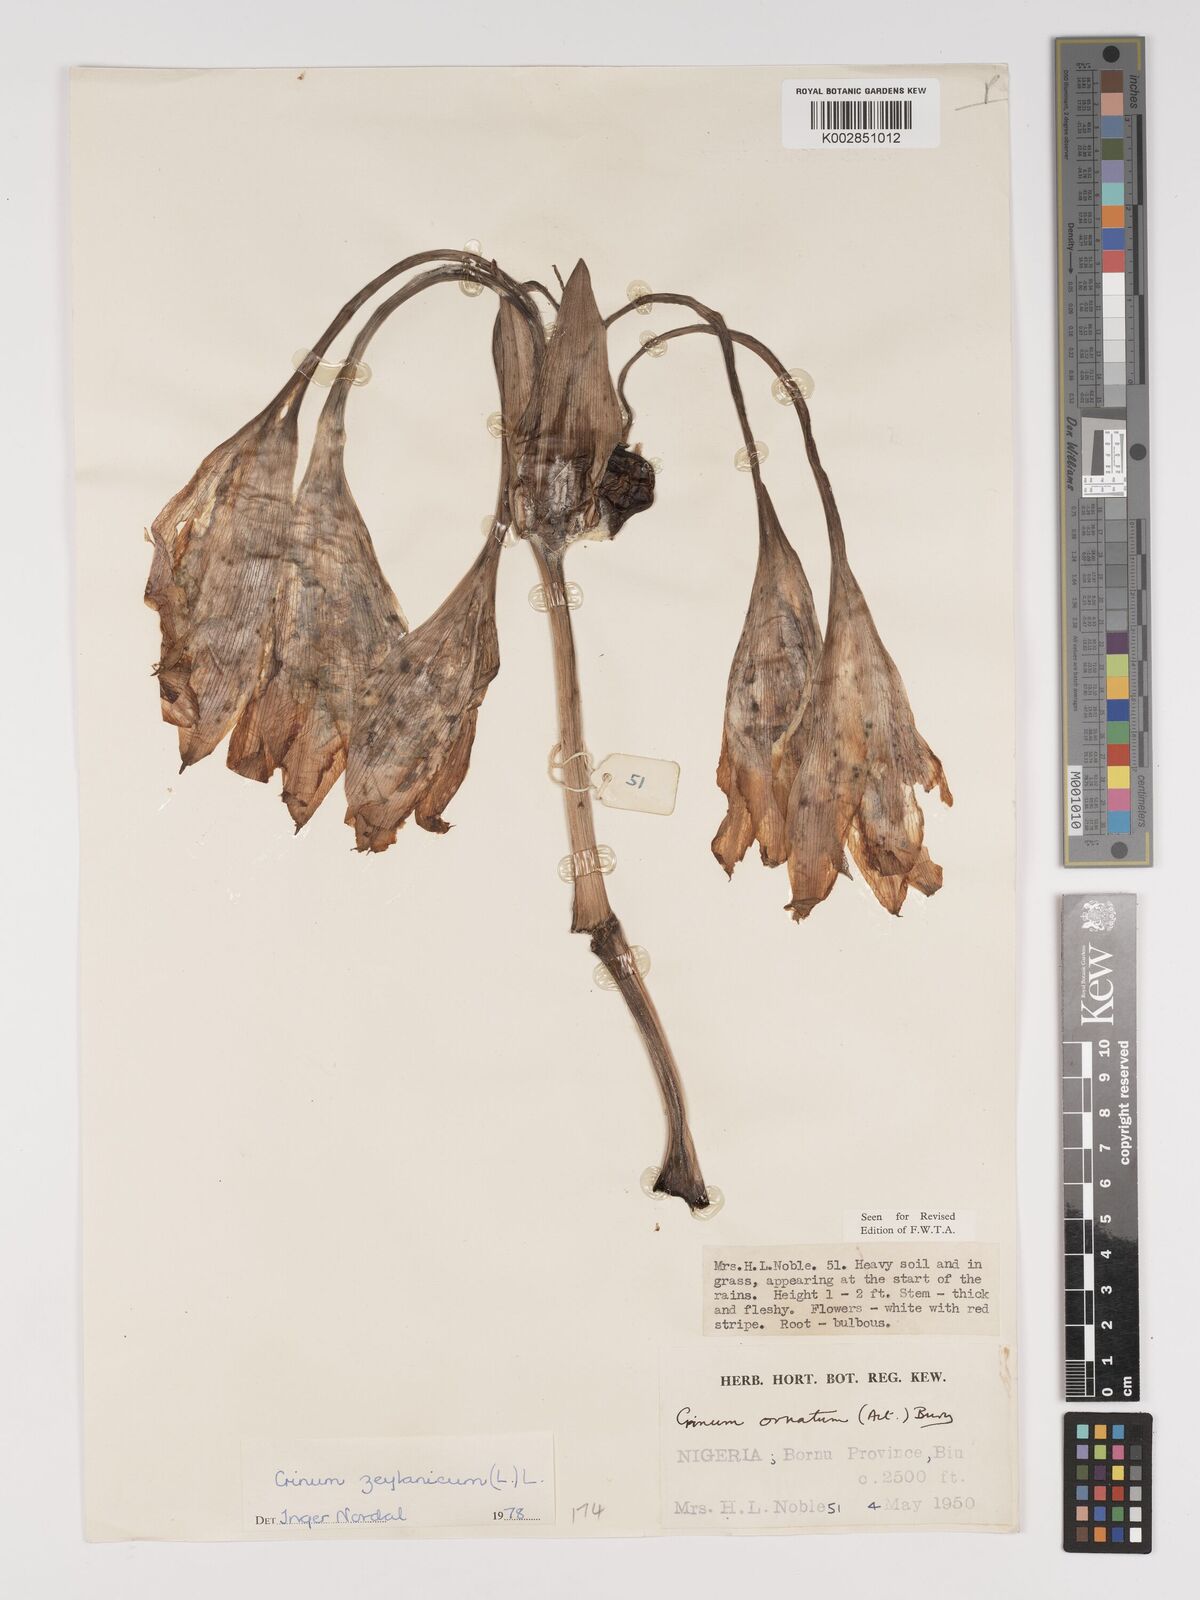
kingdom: Plantae
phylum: Tracheophyta
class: Liliopsida
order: Asparagales
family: Amaryllidaceae
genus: Crinum
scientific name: Crinum zeylanicum
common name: Ceylon swamplily
